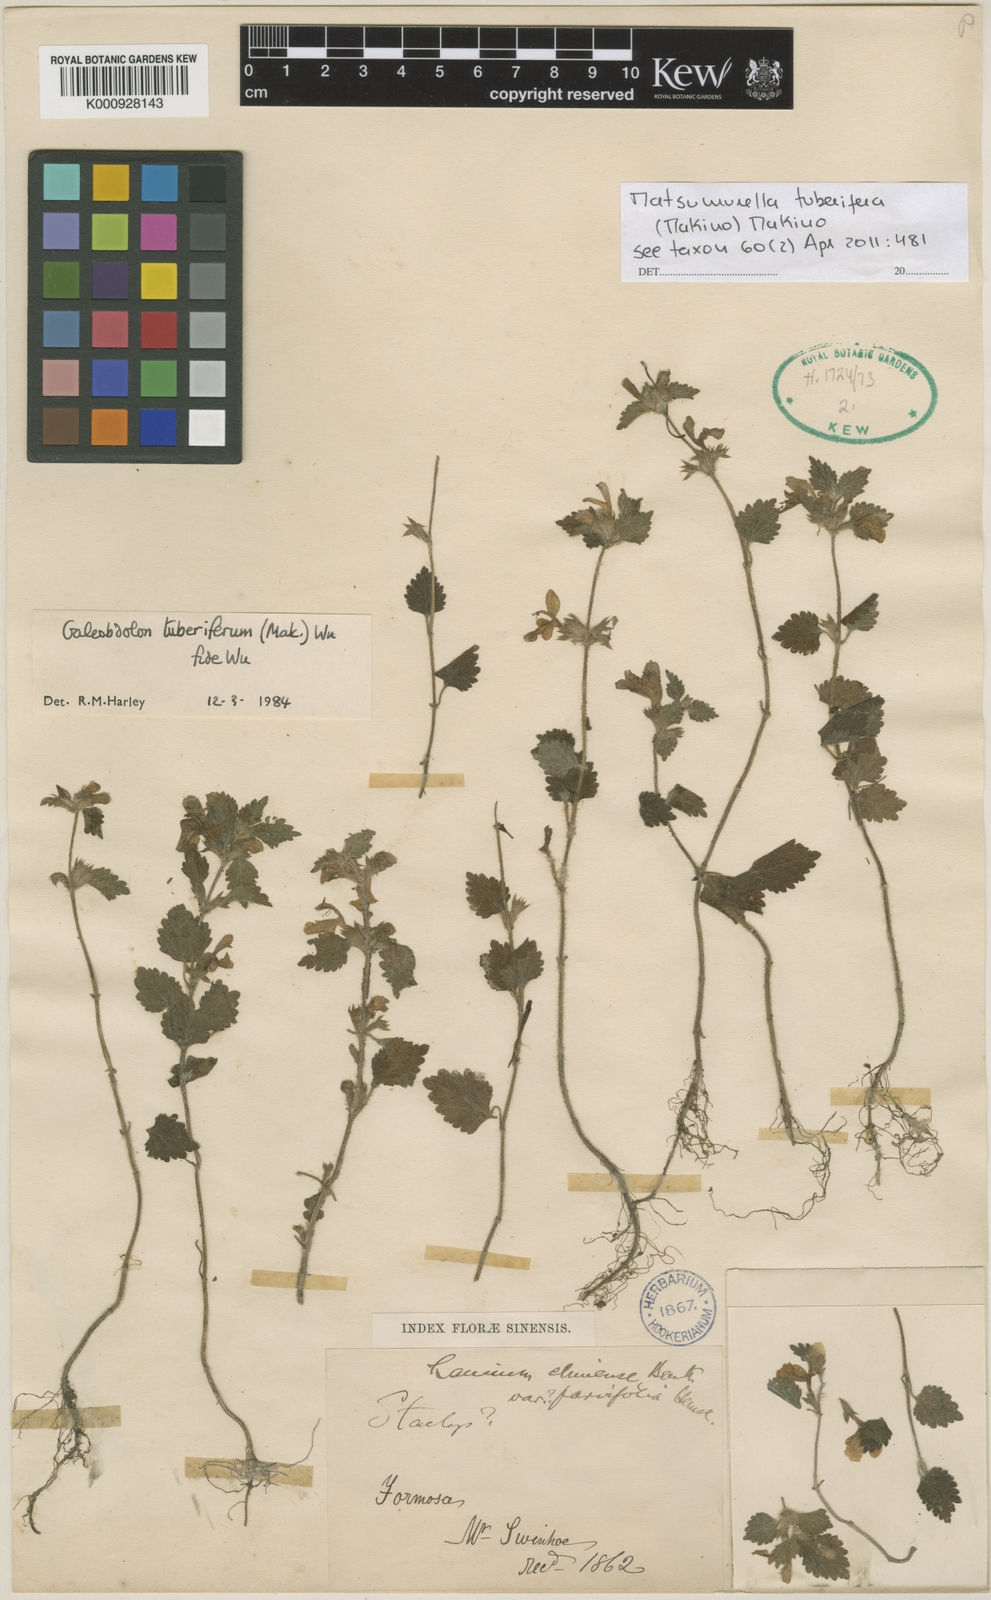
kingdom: Plantae
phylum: Tracheophyta
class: Magnoliopsida
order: Lamiales
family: Lamiaceae
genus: Matsumurella
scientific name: Matsumurella tuberifera
